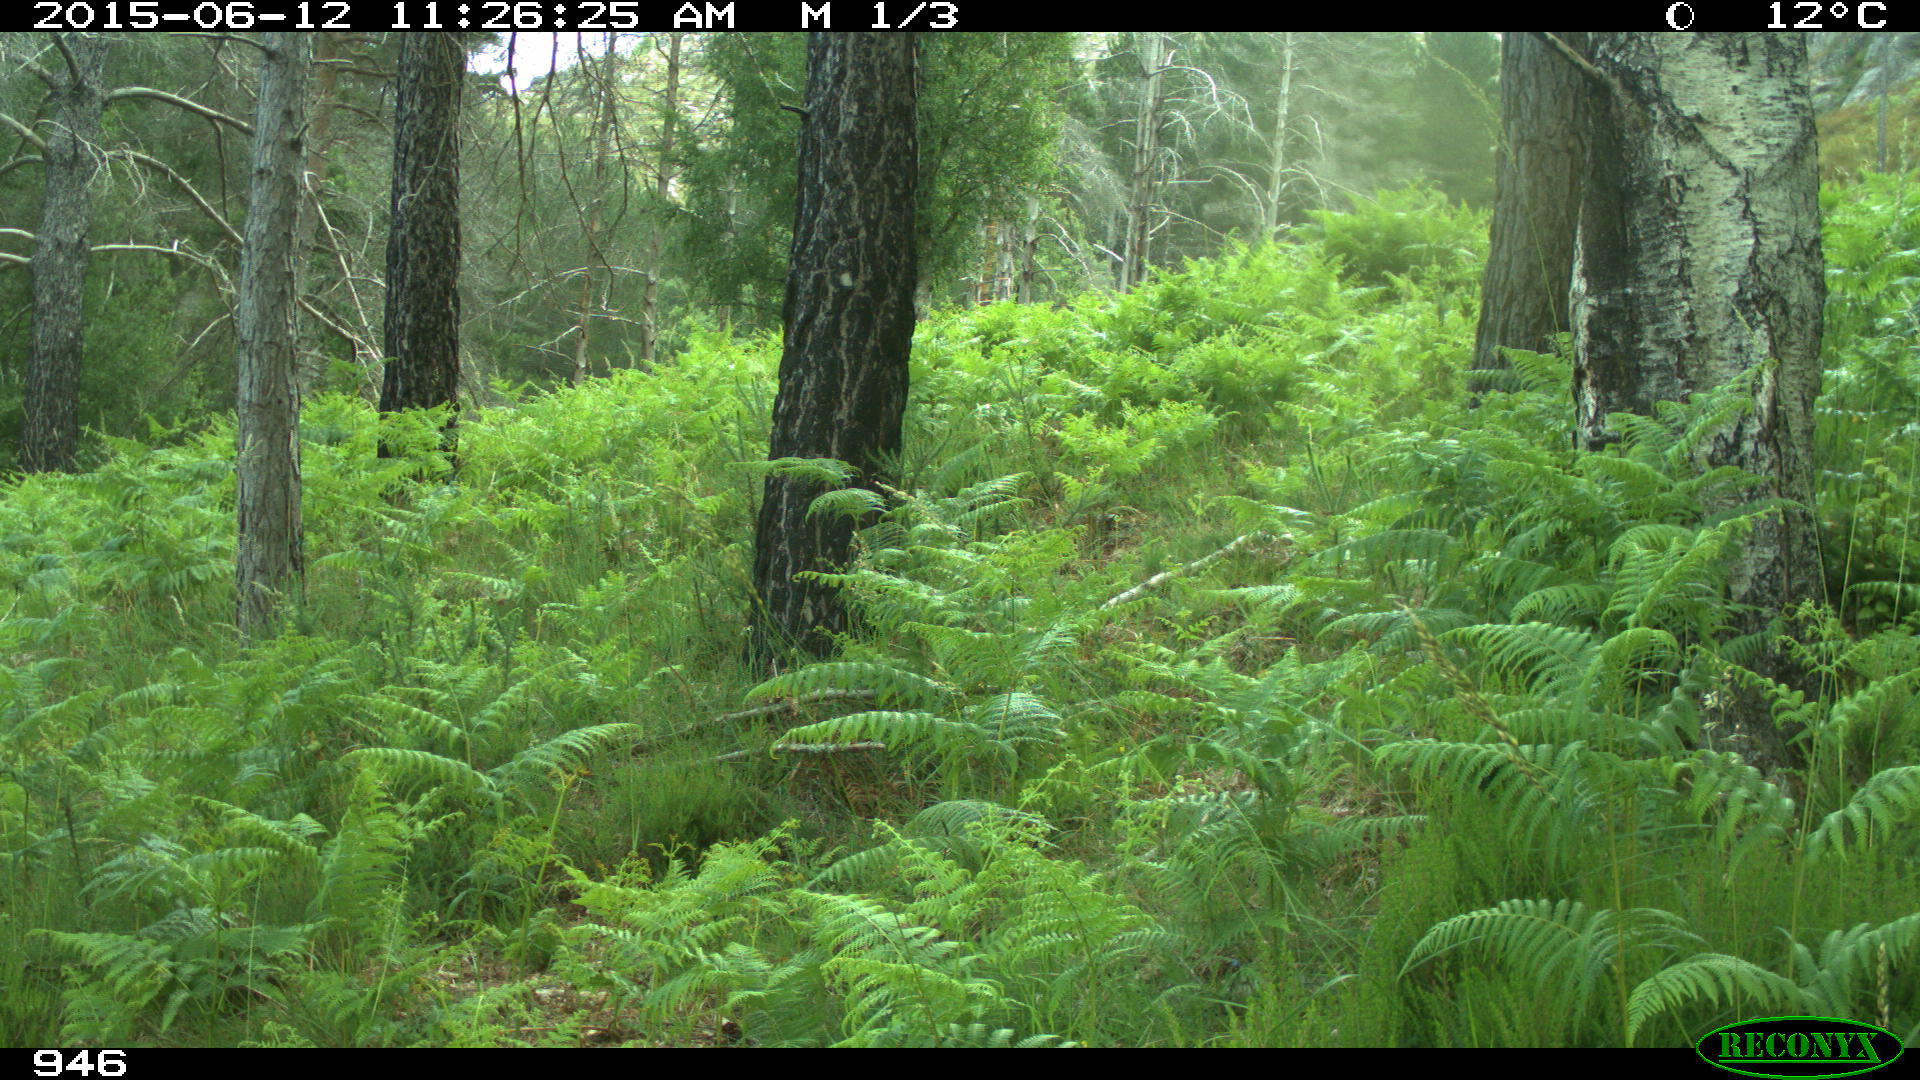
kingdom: Animalia
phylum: Chordata
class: Mammalia
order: Artiodactyla
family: Bovidae
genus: Bos
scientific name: Bos taurus
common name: Domesticated cattle
